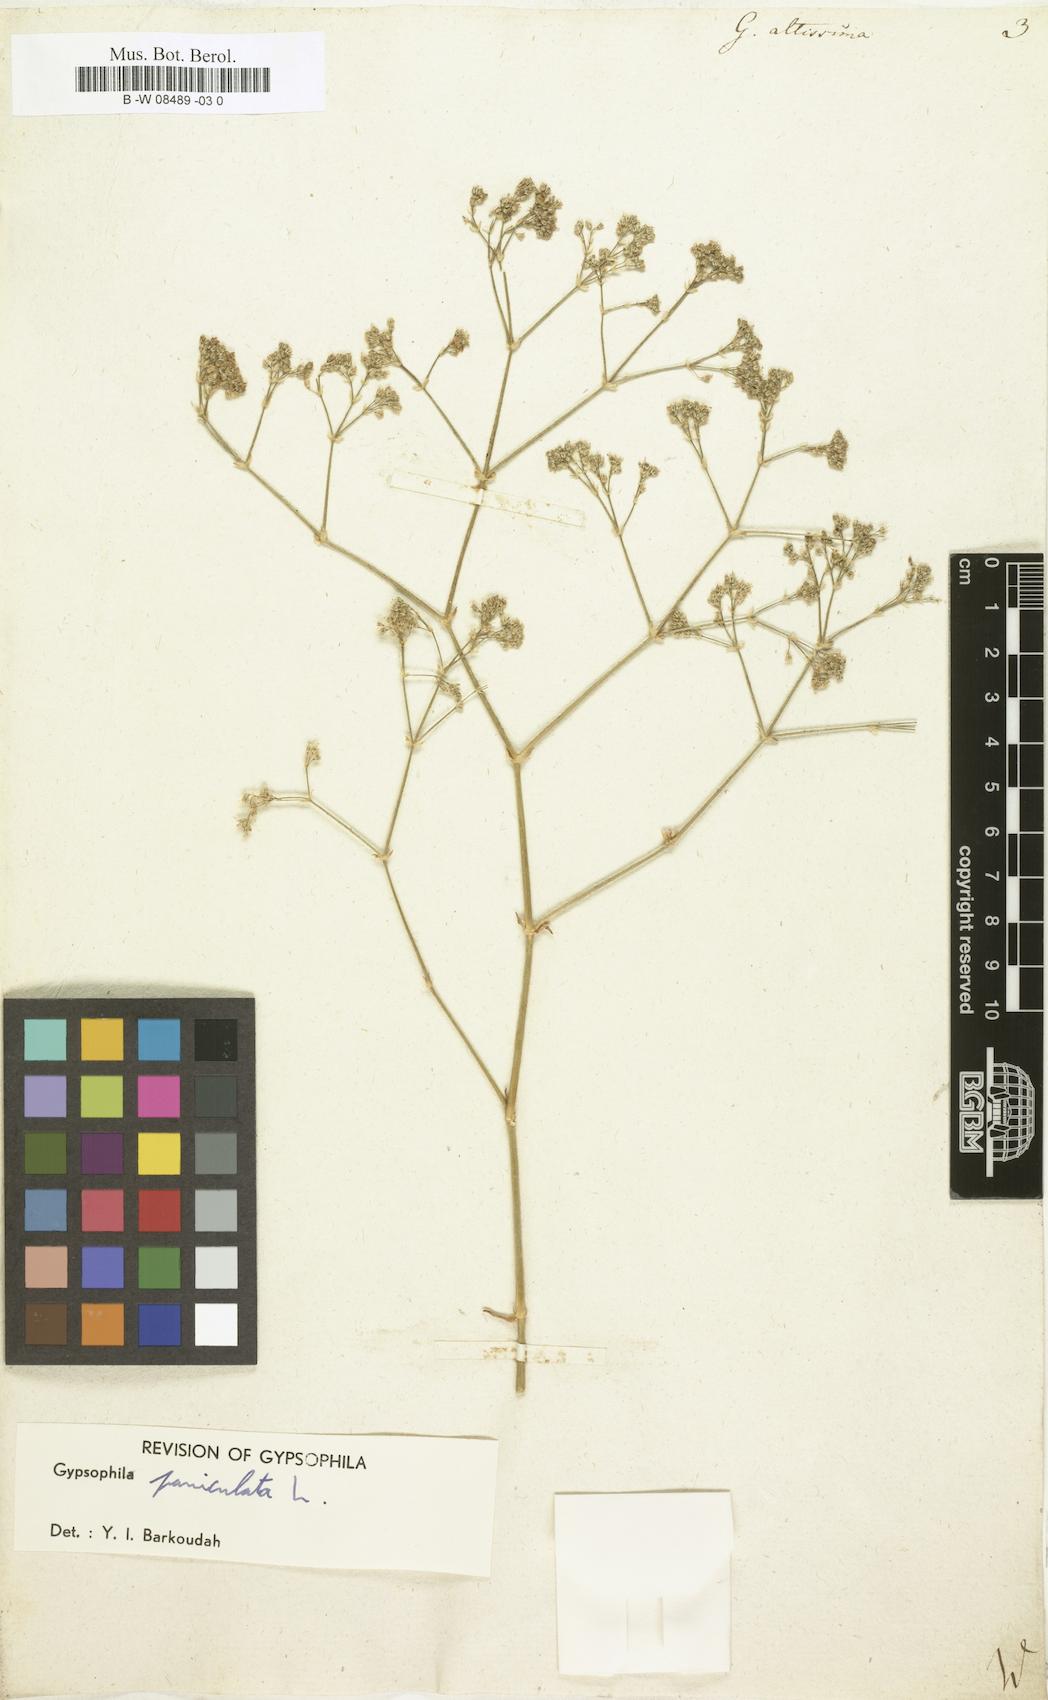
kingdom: Plantae
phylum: Tracheophyta
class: Magnoliopsida
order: Caryophyllales
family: Caryophyllaceae
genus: Gypsophila
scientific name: Gypsophila altissima
